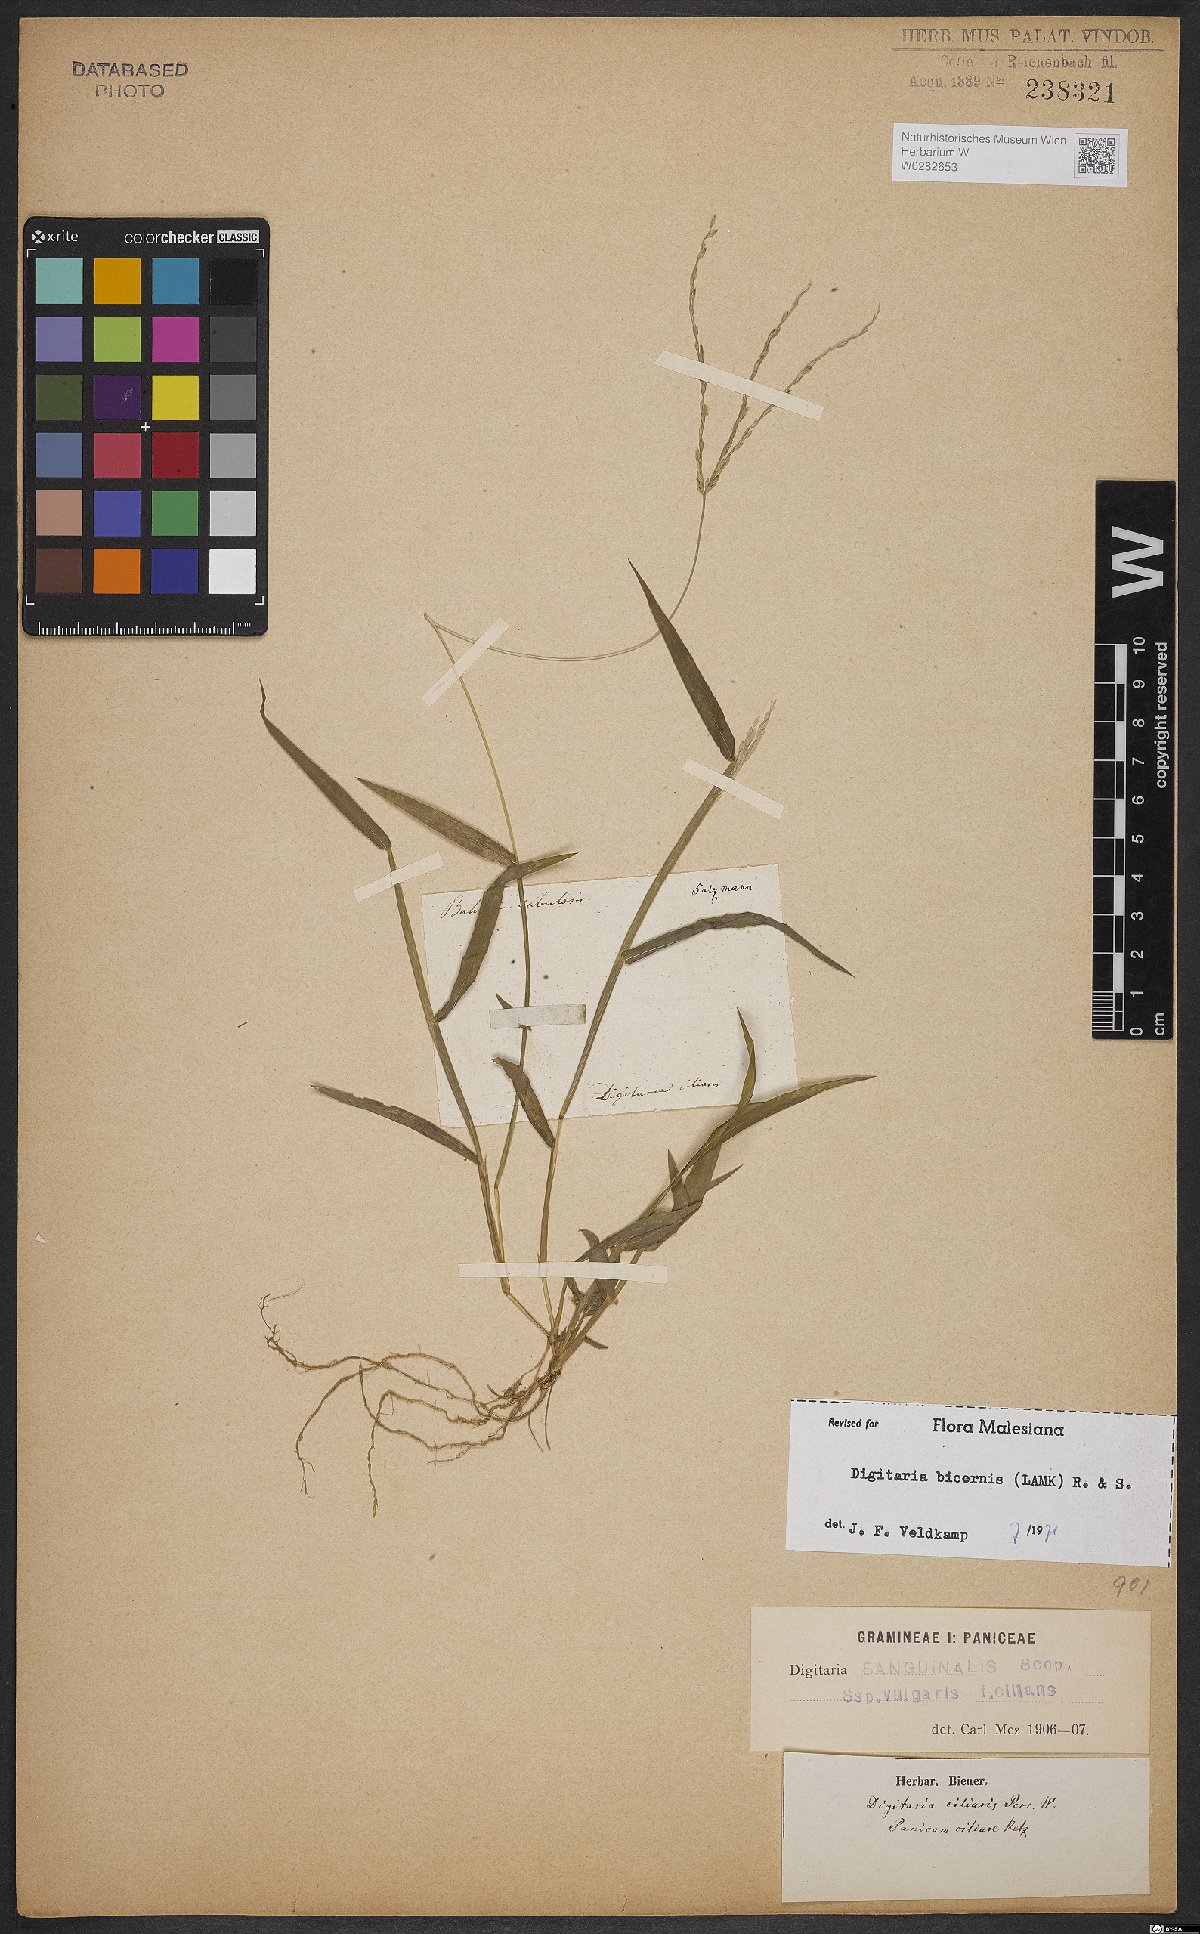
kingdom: Plantae
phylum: Tracheophyta
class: Liliopsida
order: Poales
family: Poaceae
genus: Digitaria
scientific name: Digitaria bicornis
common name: Asian crabgrass
